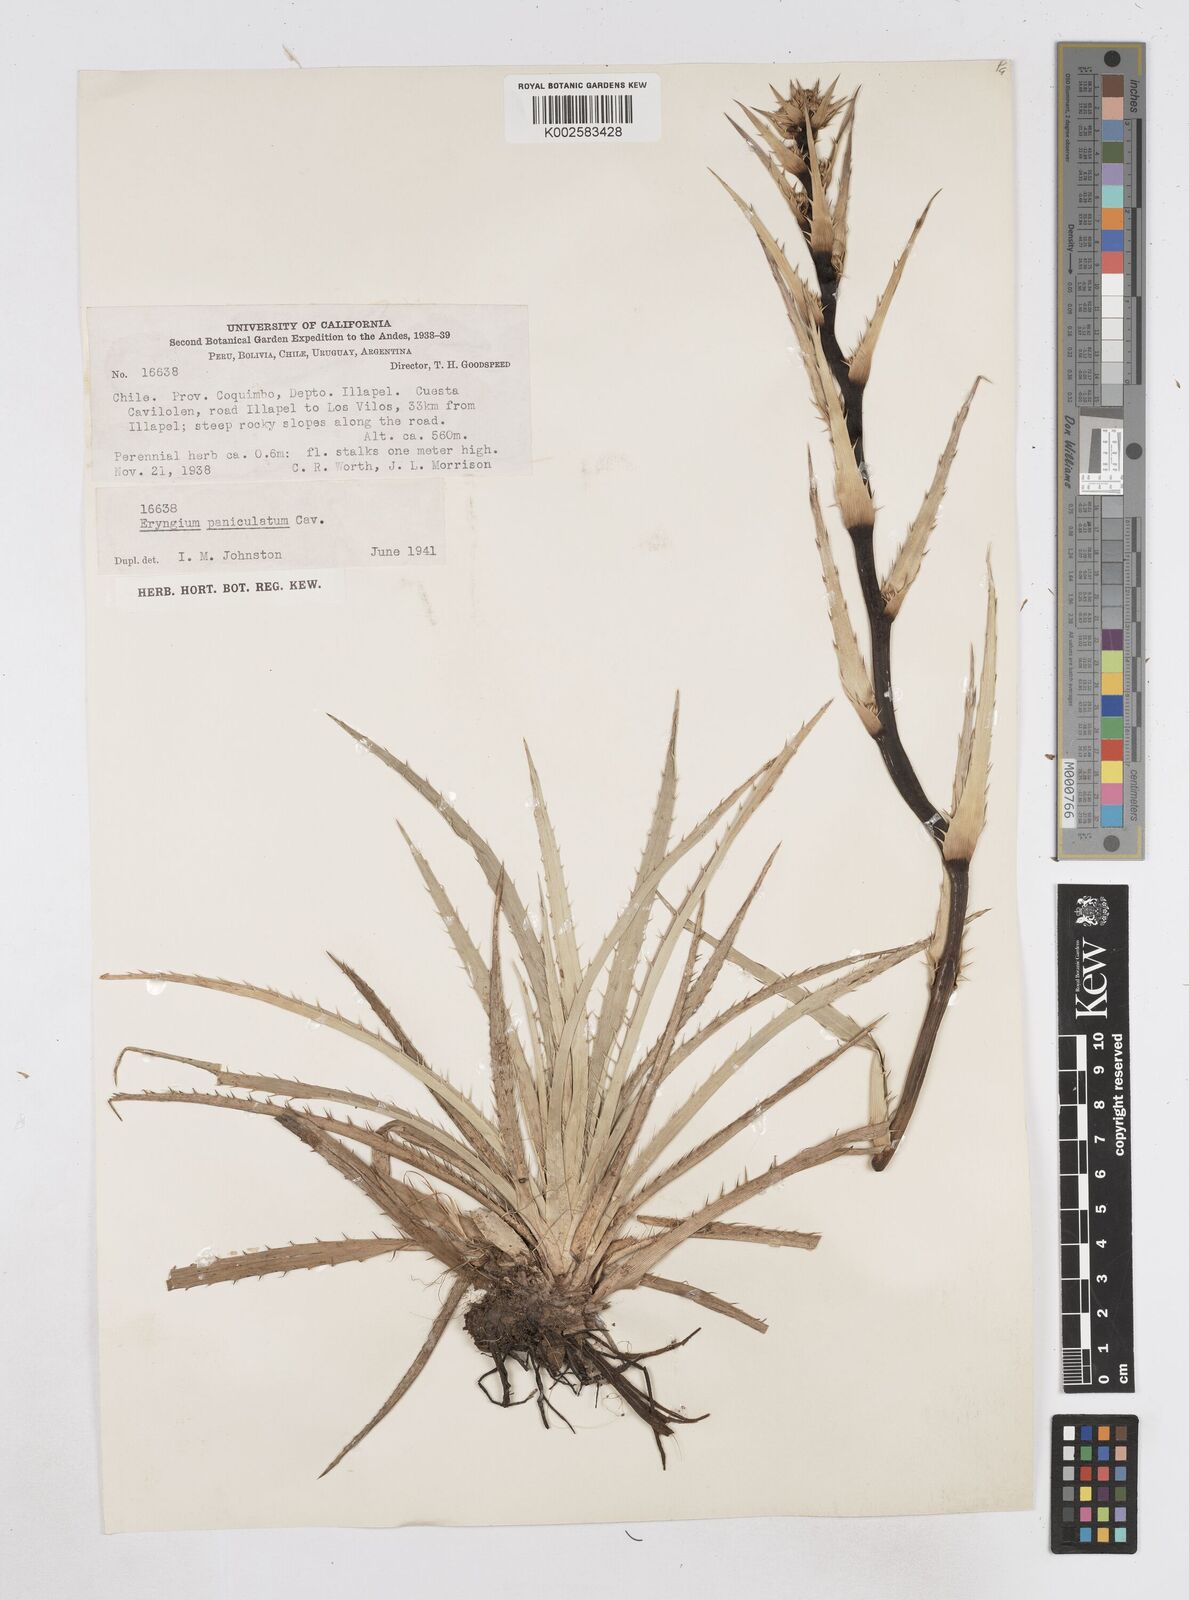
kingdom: Plantae
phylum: Tracheophyta
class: Magnoliopsida
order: Apiales
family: Apiaceae
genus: Eryngium
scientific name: Eryngium humboldtii
